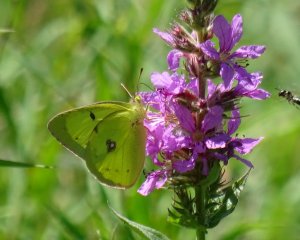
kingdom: Animalia
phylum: Arthropoda
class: Insecta
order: Lepidoptera
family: Pieridae
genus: Colias
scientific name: Colias philodice
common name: Clouded Sulphur
